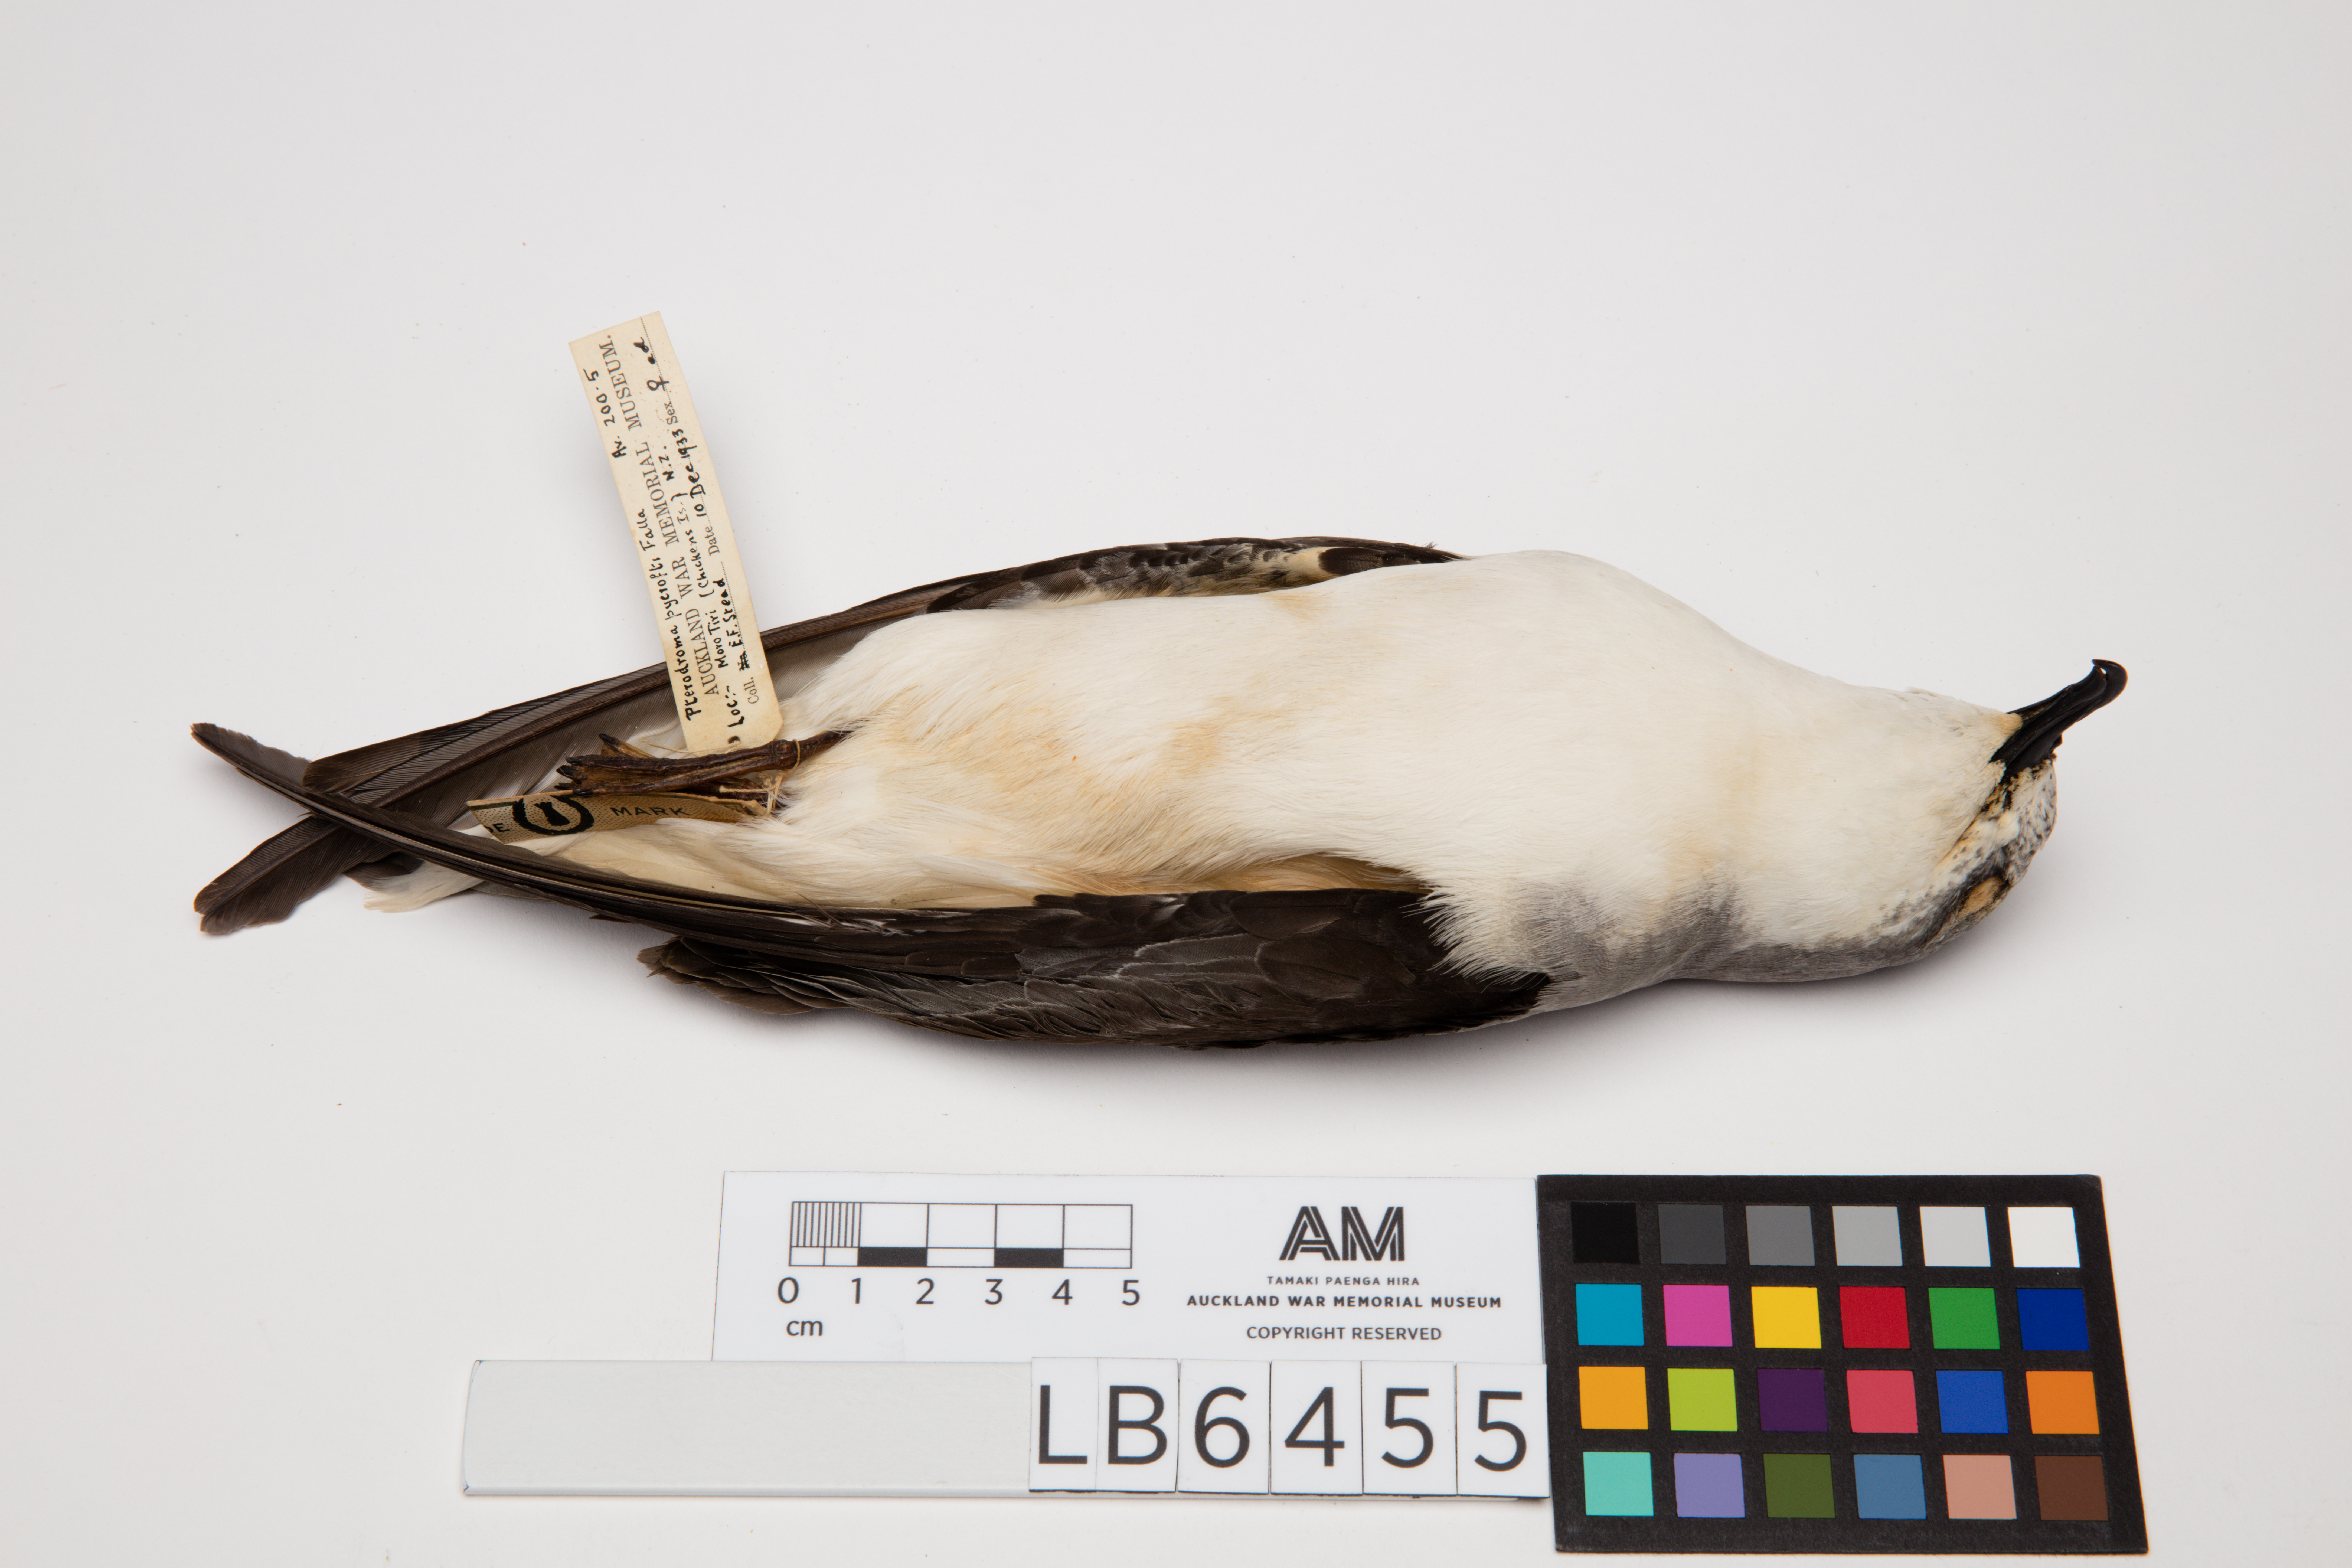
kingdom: Animalia
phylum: Chordata
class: Aves
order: Procellariiformes
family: Procellariidae
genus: Pterodroma
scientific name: Pterodroma pycrofti
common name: Pycroft's petrel
